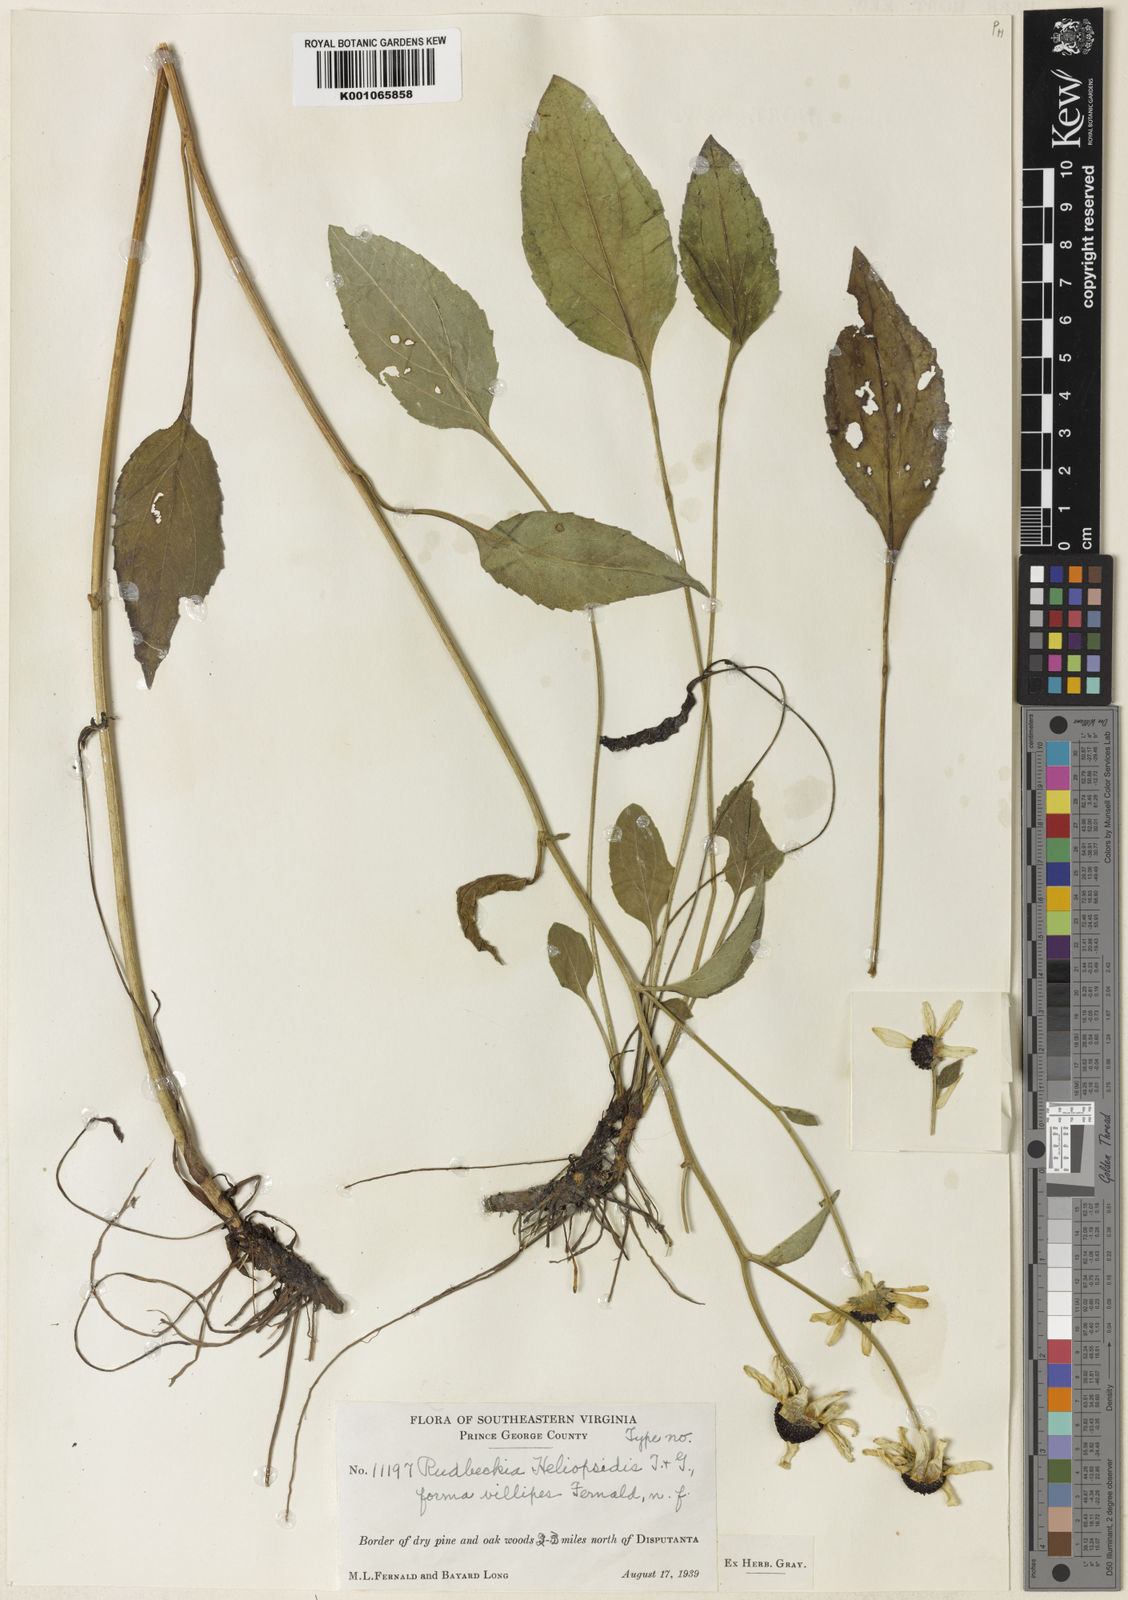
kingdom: Plantae
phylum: Tracheophyta
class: Magnoliopsida
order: Asterales
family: Asteraceae
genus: Rudbeckia
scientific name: Rudbeckia heliopsidis
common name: Little river black-eyed-susan
